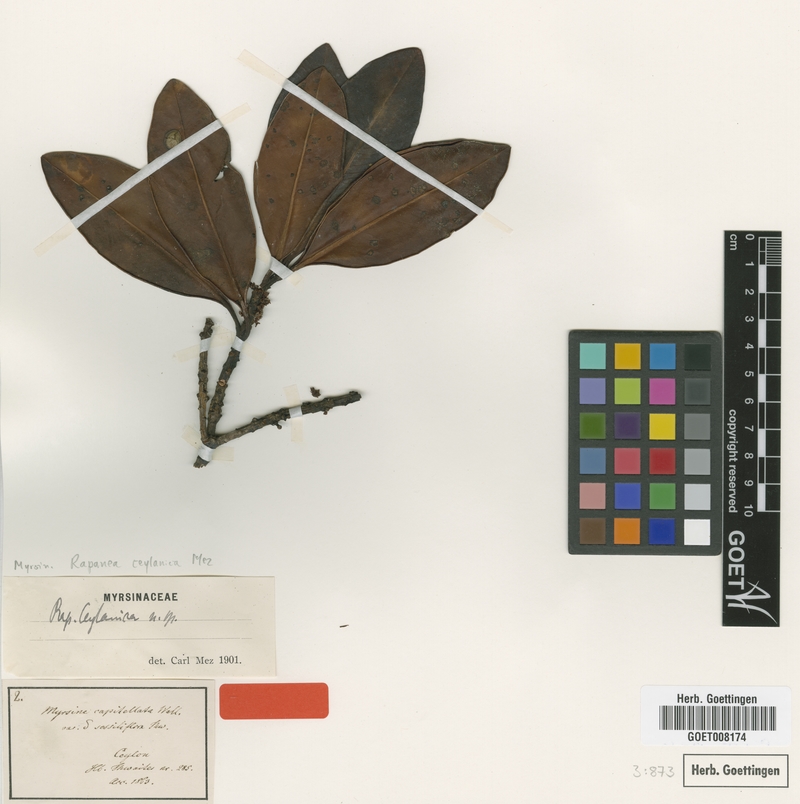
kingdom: Plantae
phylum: Tracheophyta
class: Magnoliopsida
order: Ericales
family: Primulaceae
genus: Myrsine
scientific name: Myrsine ceylanica
